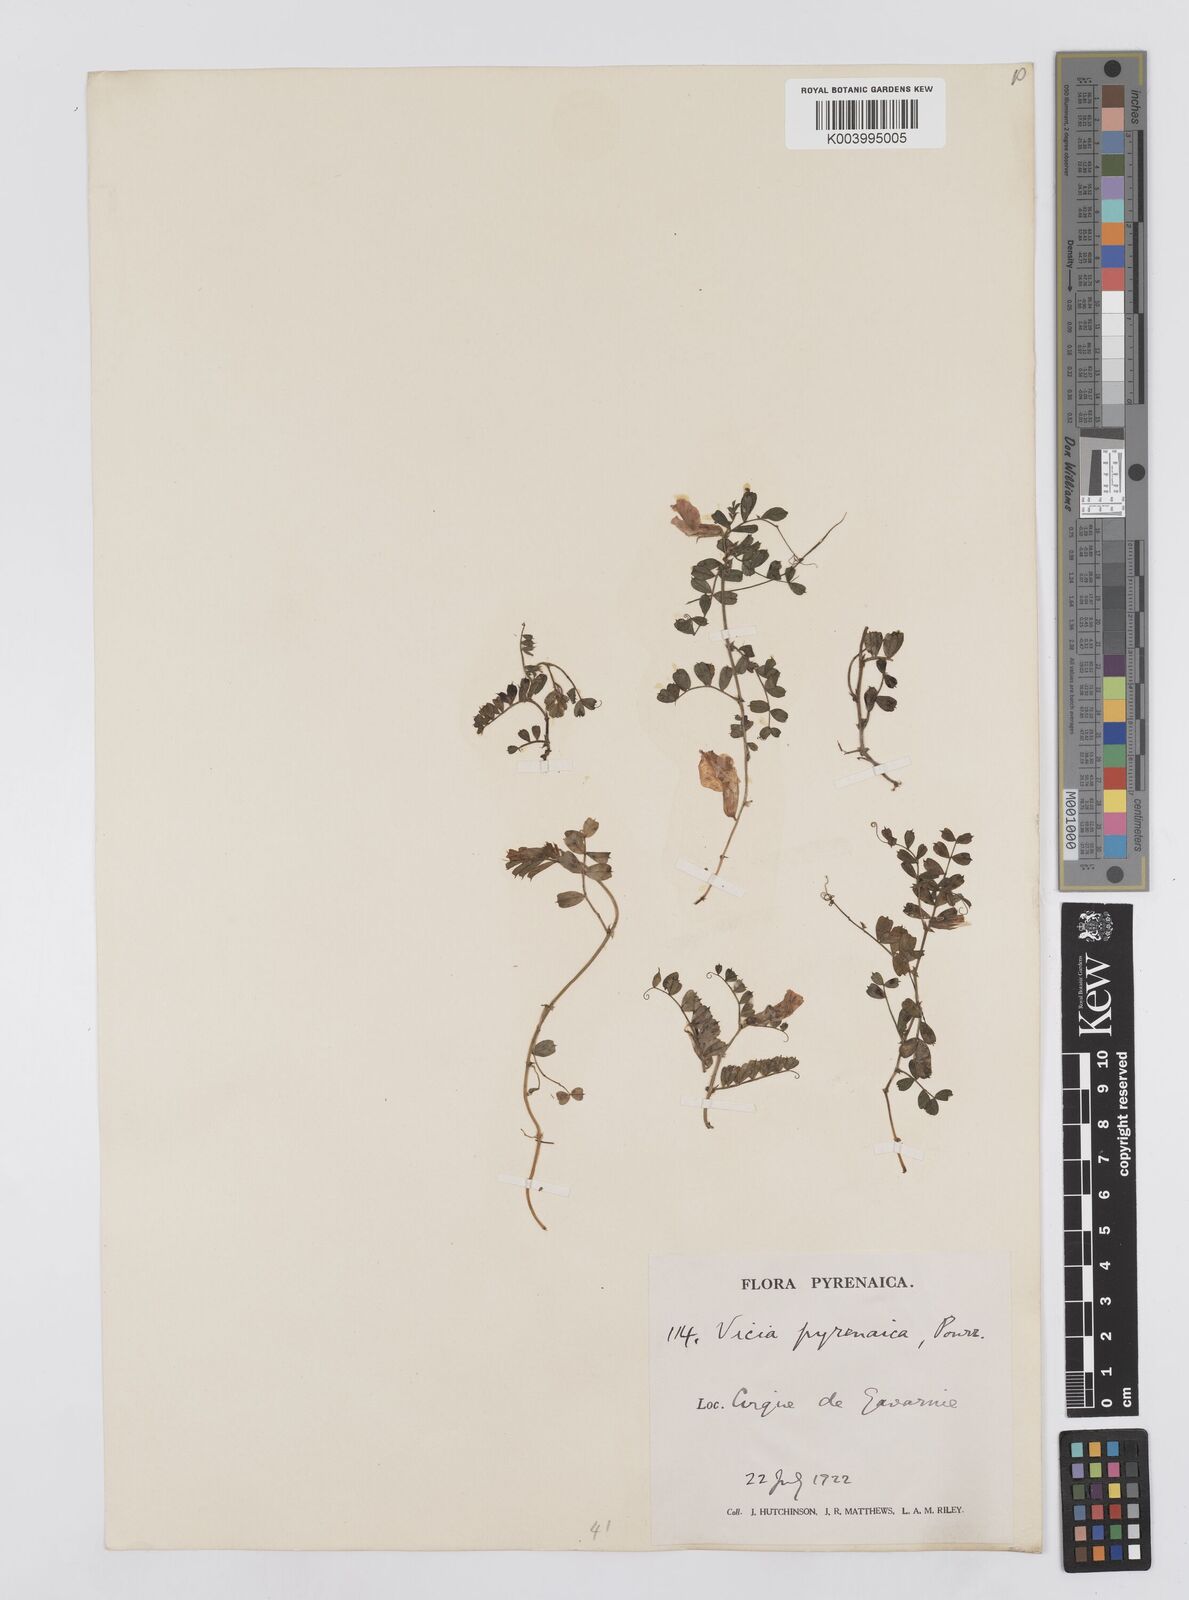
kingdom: Plantae
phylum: Tracheophyta
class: Magnoliopsida
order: Fabales
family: Fabaceae
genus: Vicia
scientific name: Vicia pyrenaica
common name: Pyrenean vetch
